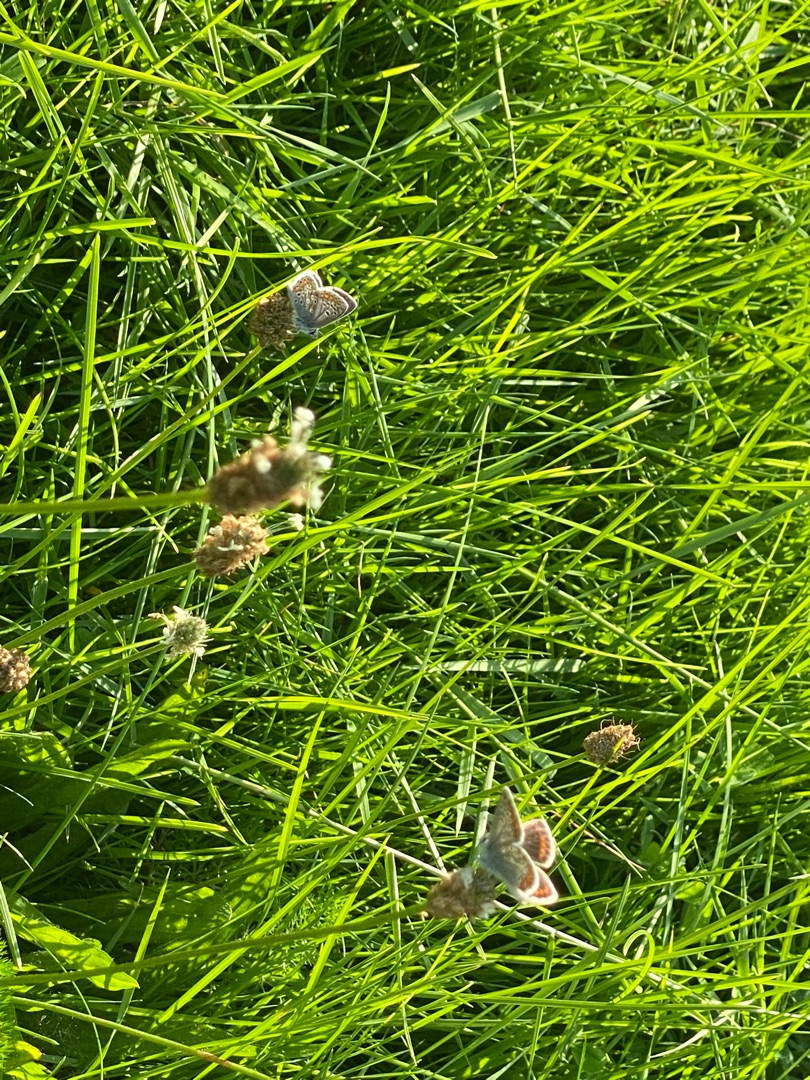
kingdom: Animalia
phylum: Arthropoda
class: Insecta
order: Lepidoptera
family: Lycaenidae
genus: Aricia
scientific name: Aricia agestis
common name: Rødplettet blåfugl
